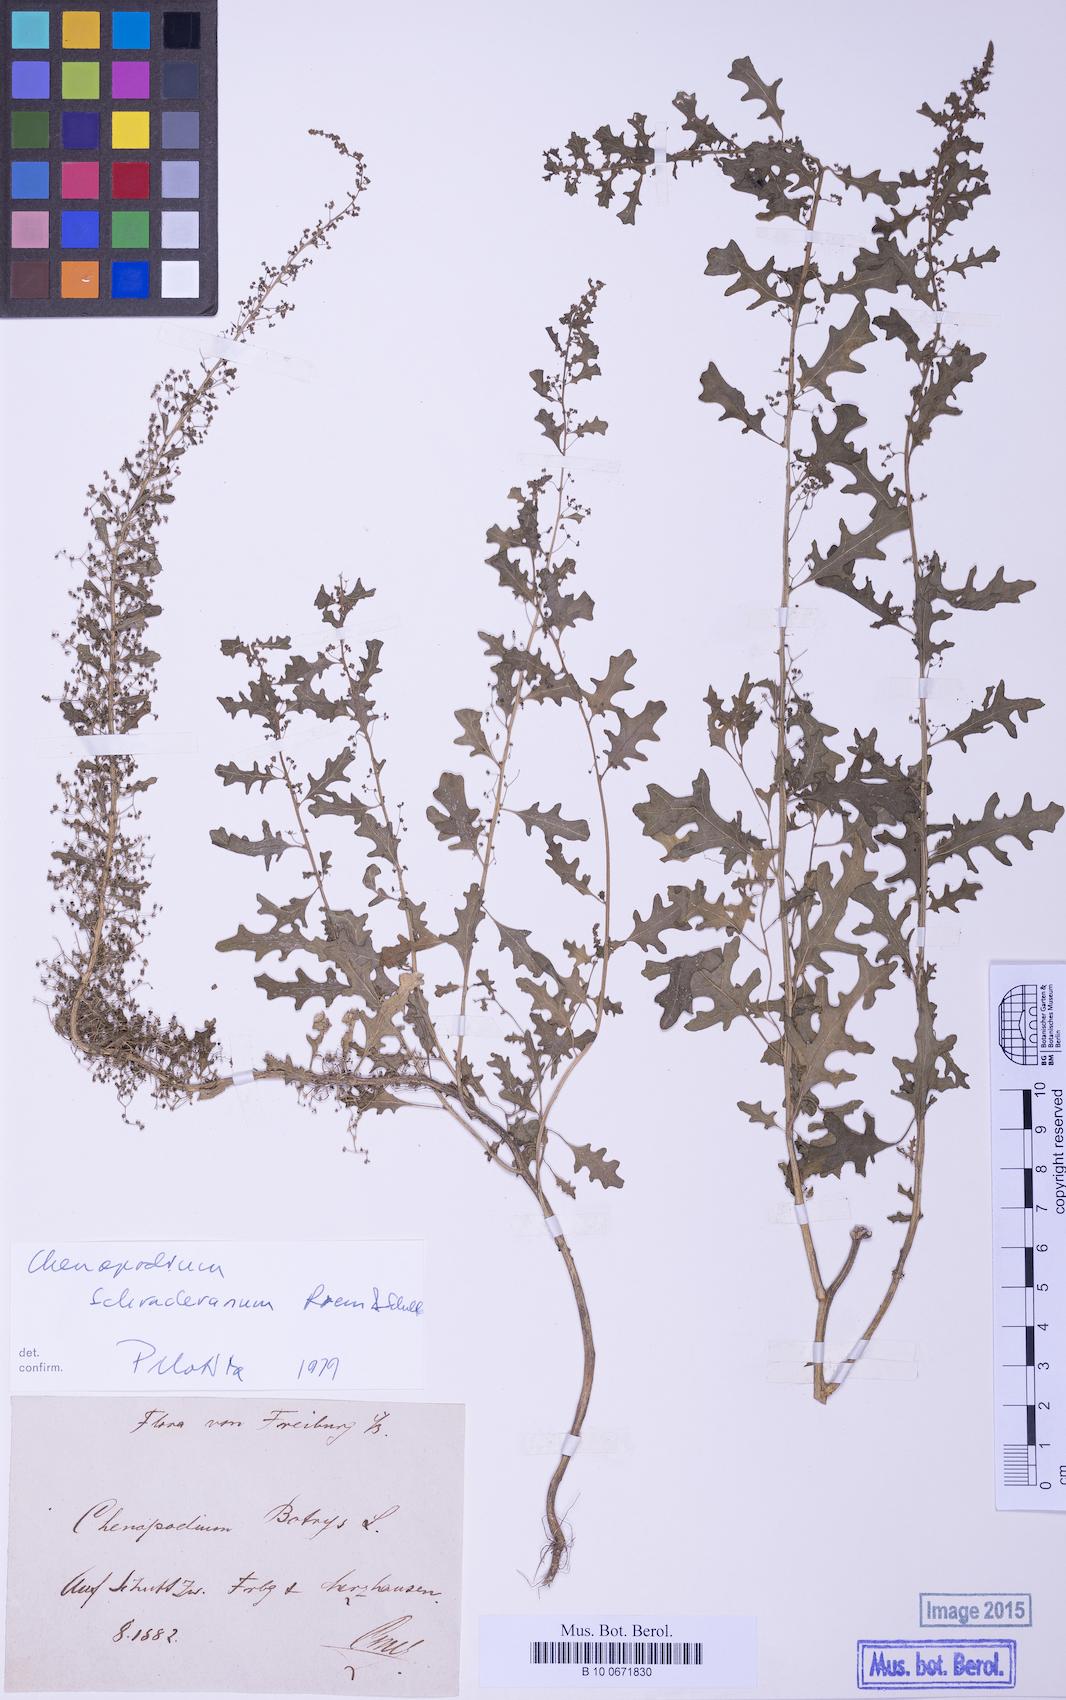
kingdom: Plantae
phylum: Tracheophyta
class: Magnoliopsida
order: Caryophyllales
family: Amaranthaceae
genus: Dysphania
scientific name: Dysphania schraderiana
